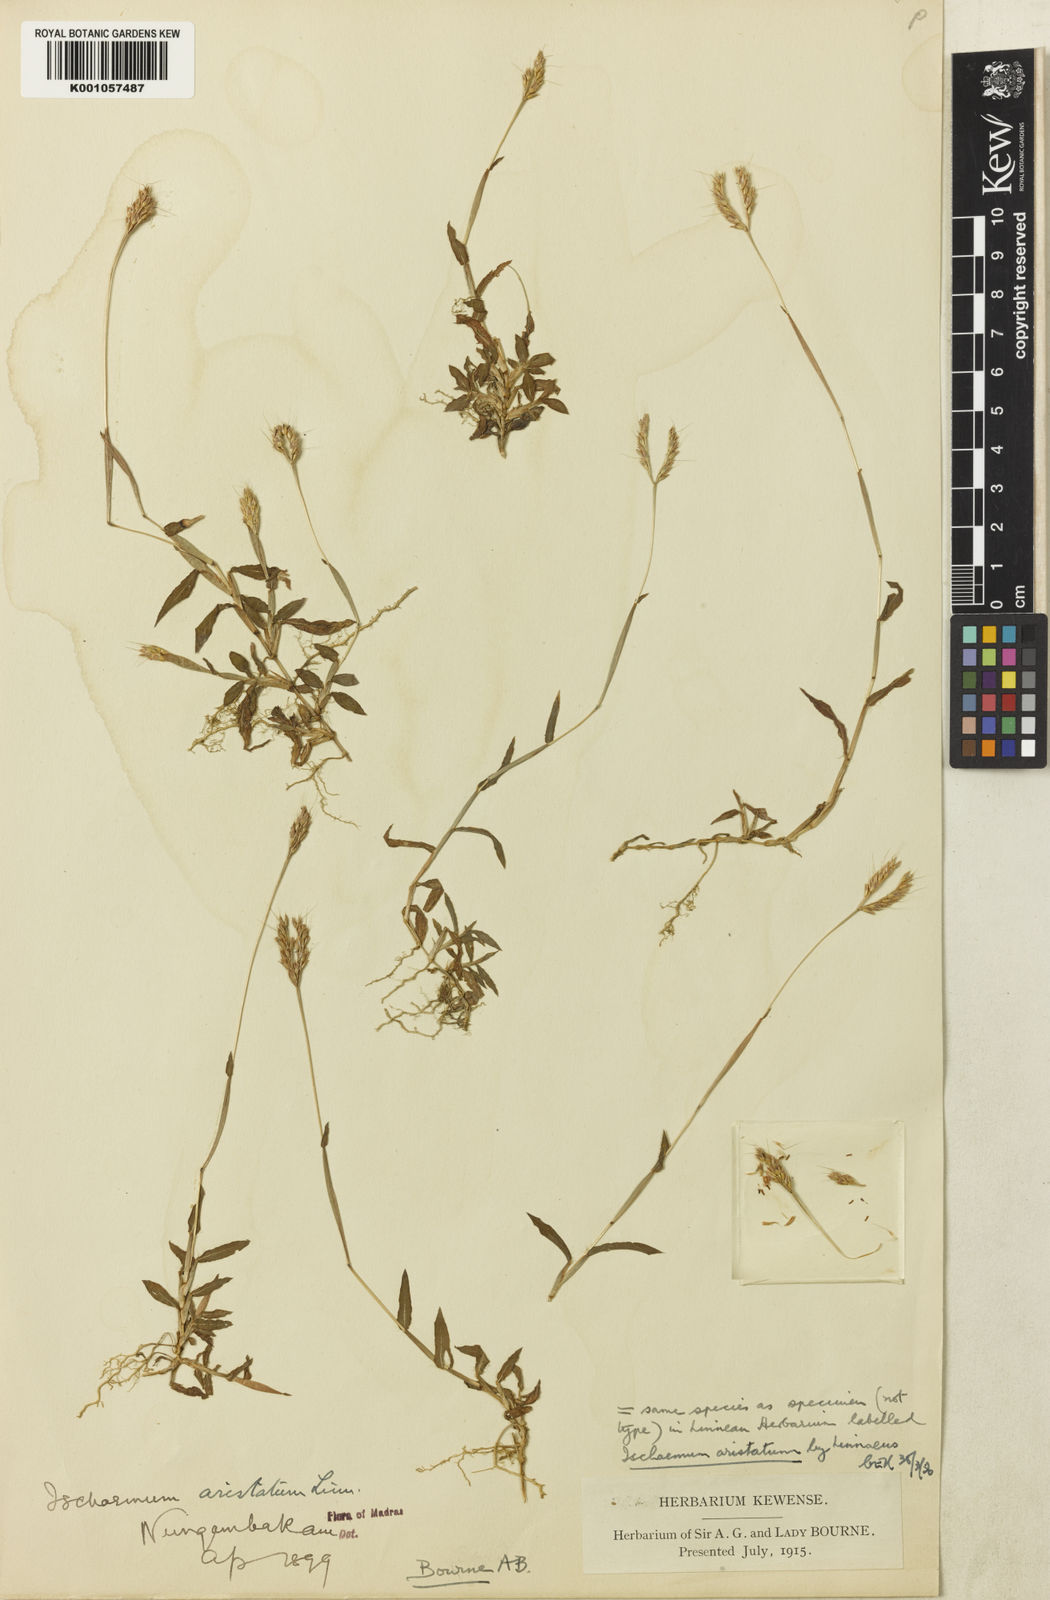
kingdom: Plantae
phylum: Tracheophyta
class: Liliopsida
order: Poales
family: Poaceae
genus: Polytrias
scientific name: Polytrias indica
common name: Indian murainagrass
